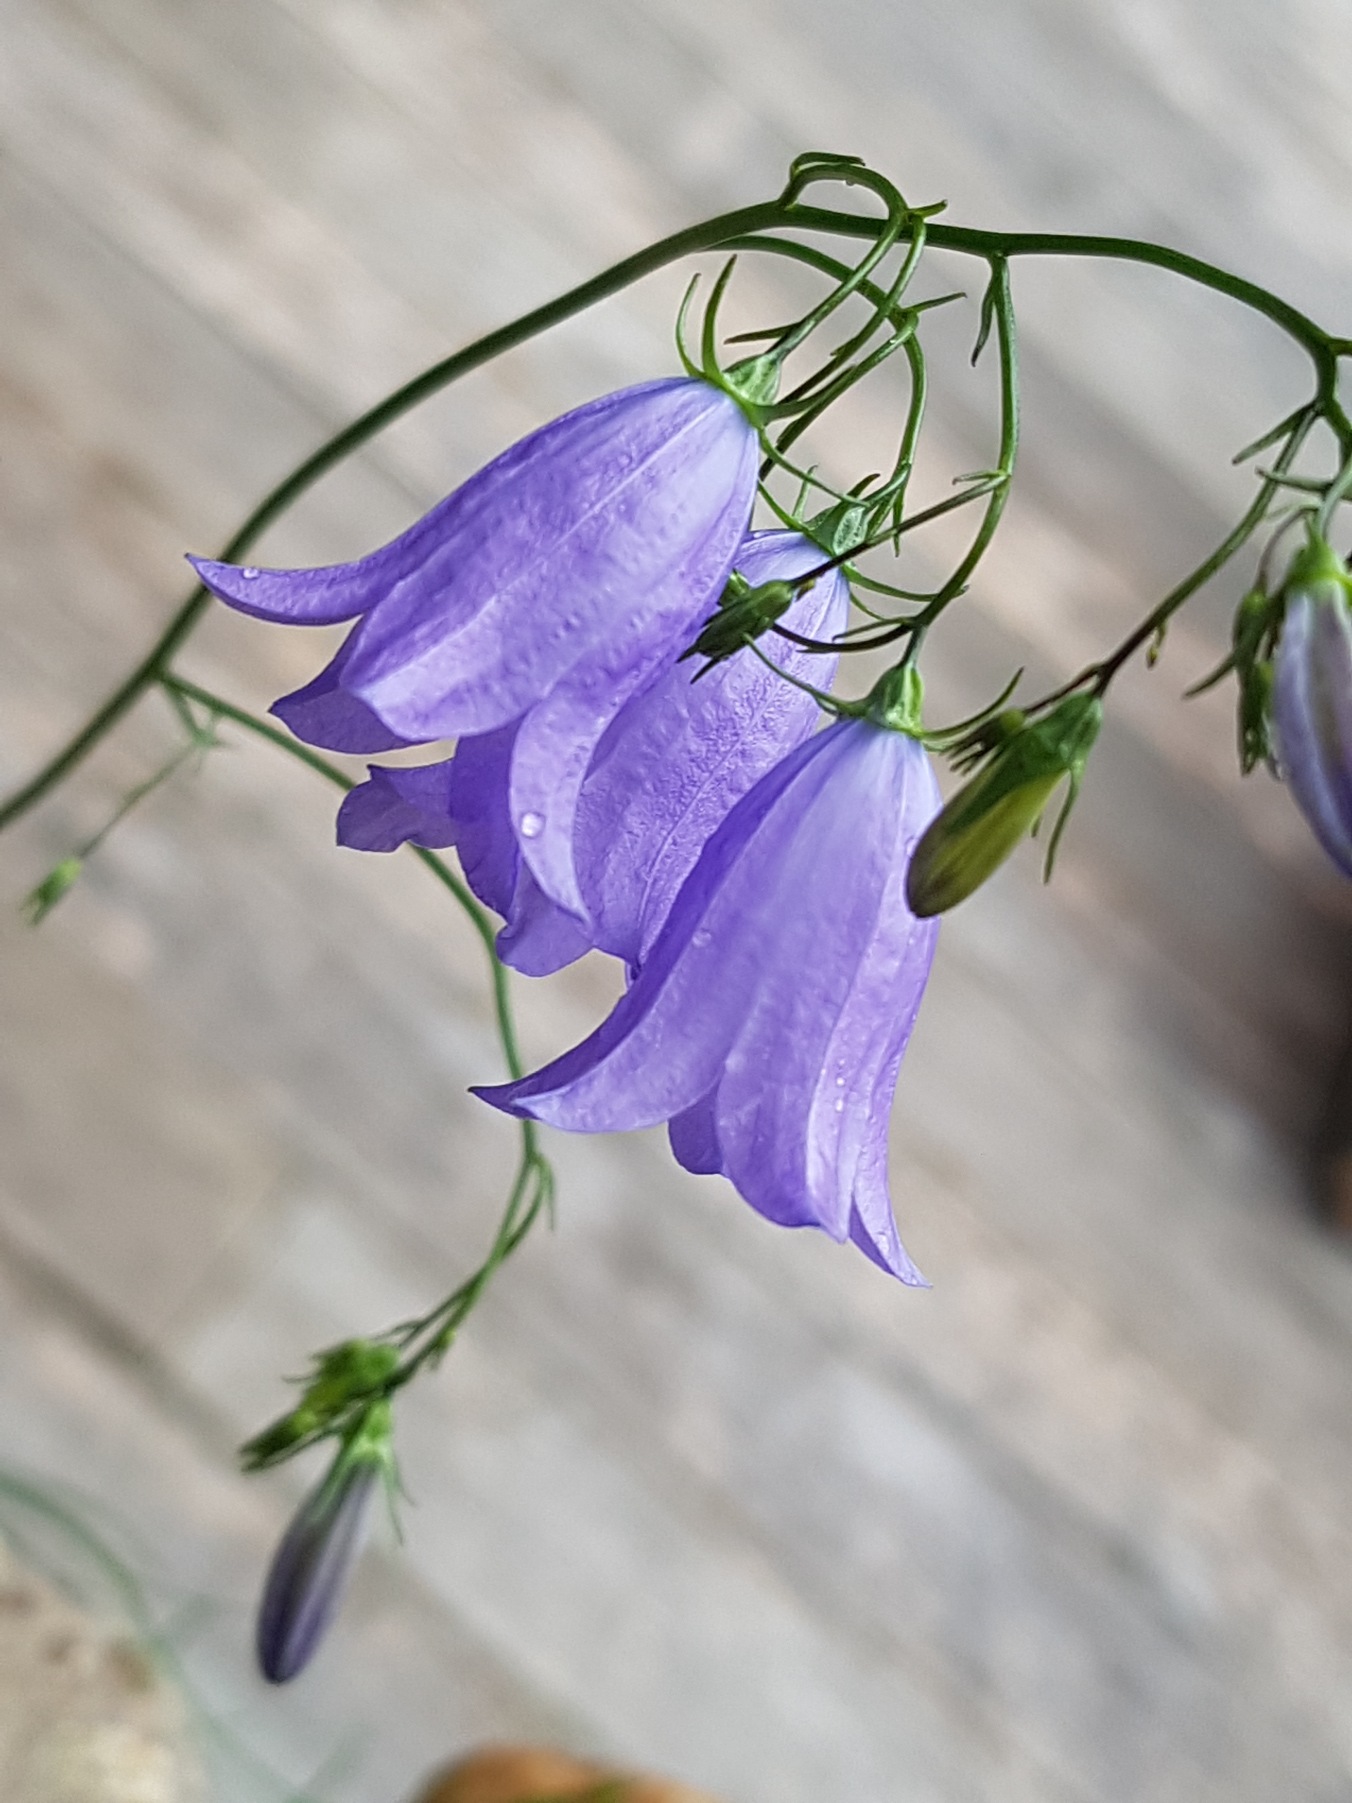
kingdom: Plantae
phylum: Tracheophyta
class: Magnoliopsida
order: Asterales
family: Campanulaceae
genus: Campanula
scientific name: Campanula rotundifolia
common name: Liden klokke
